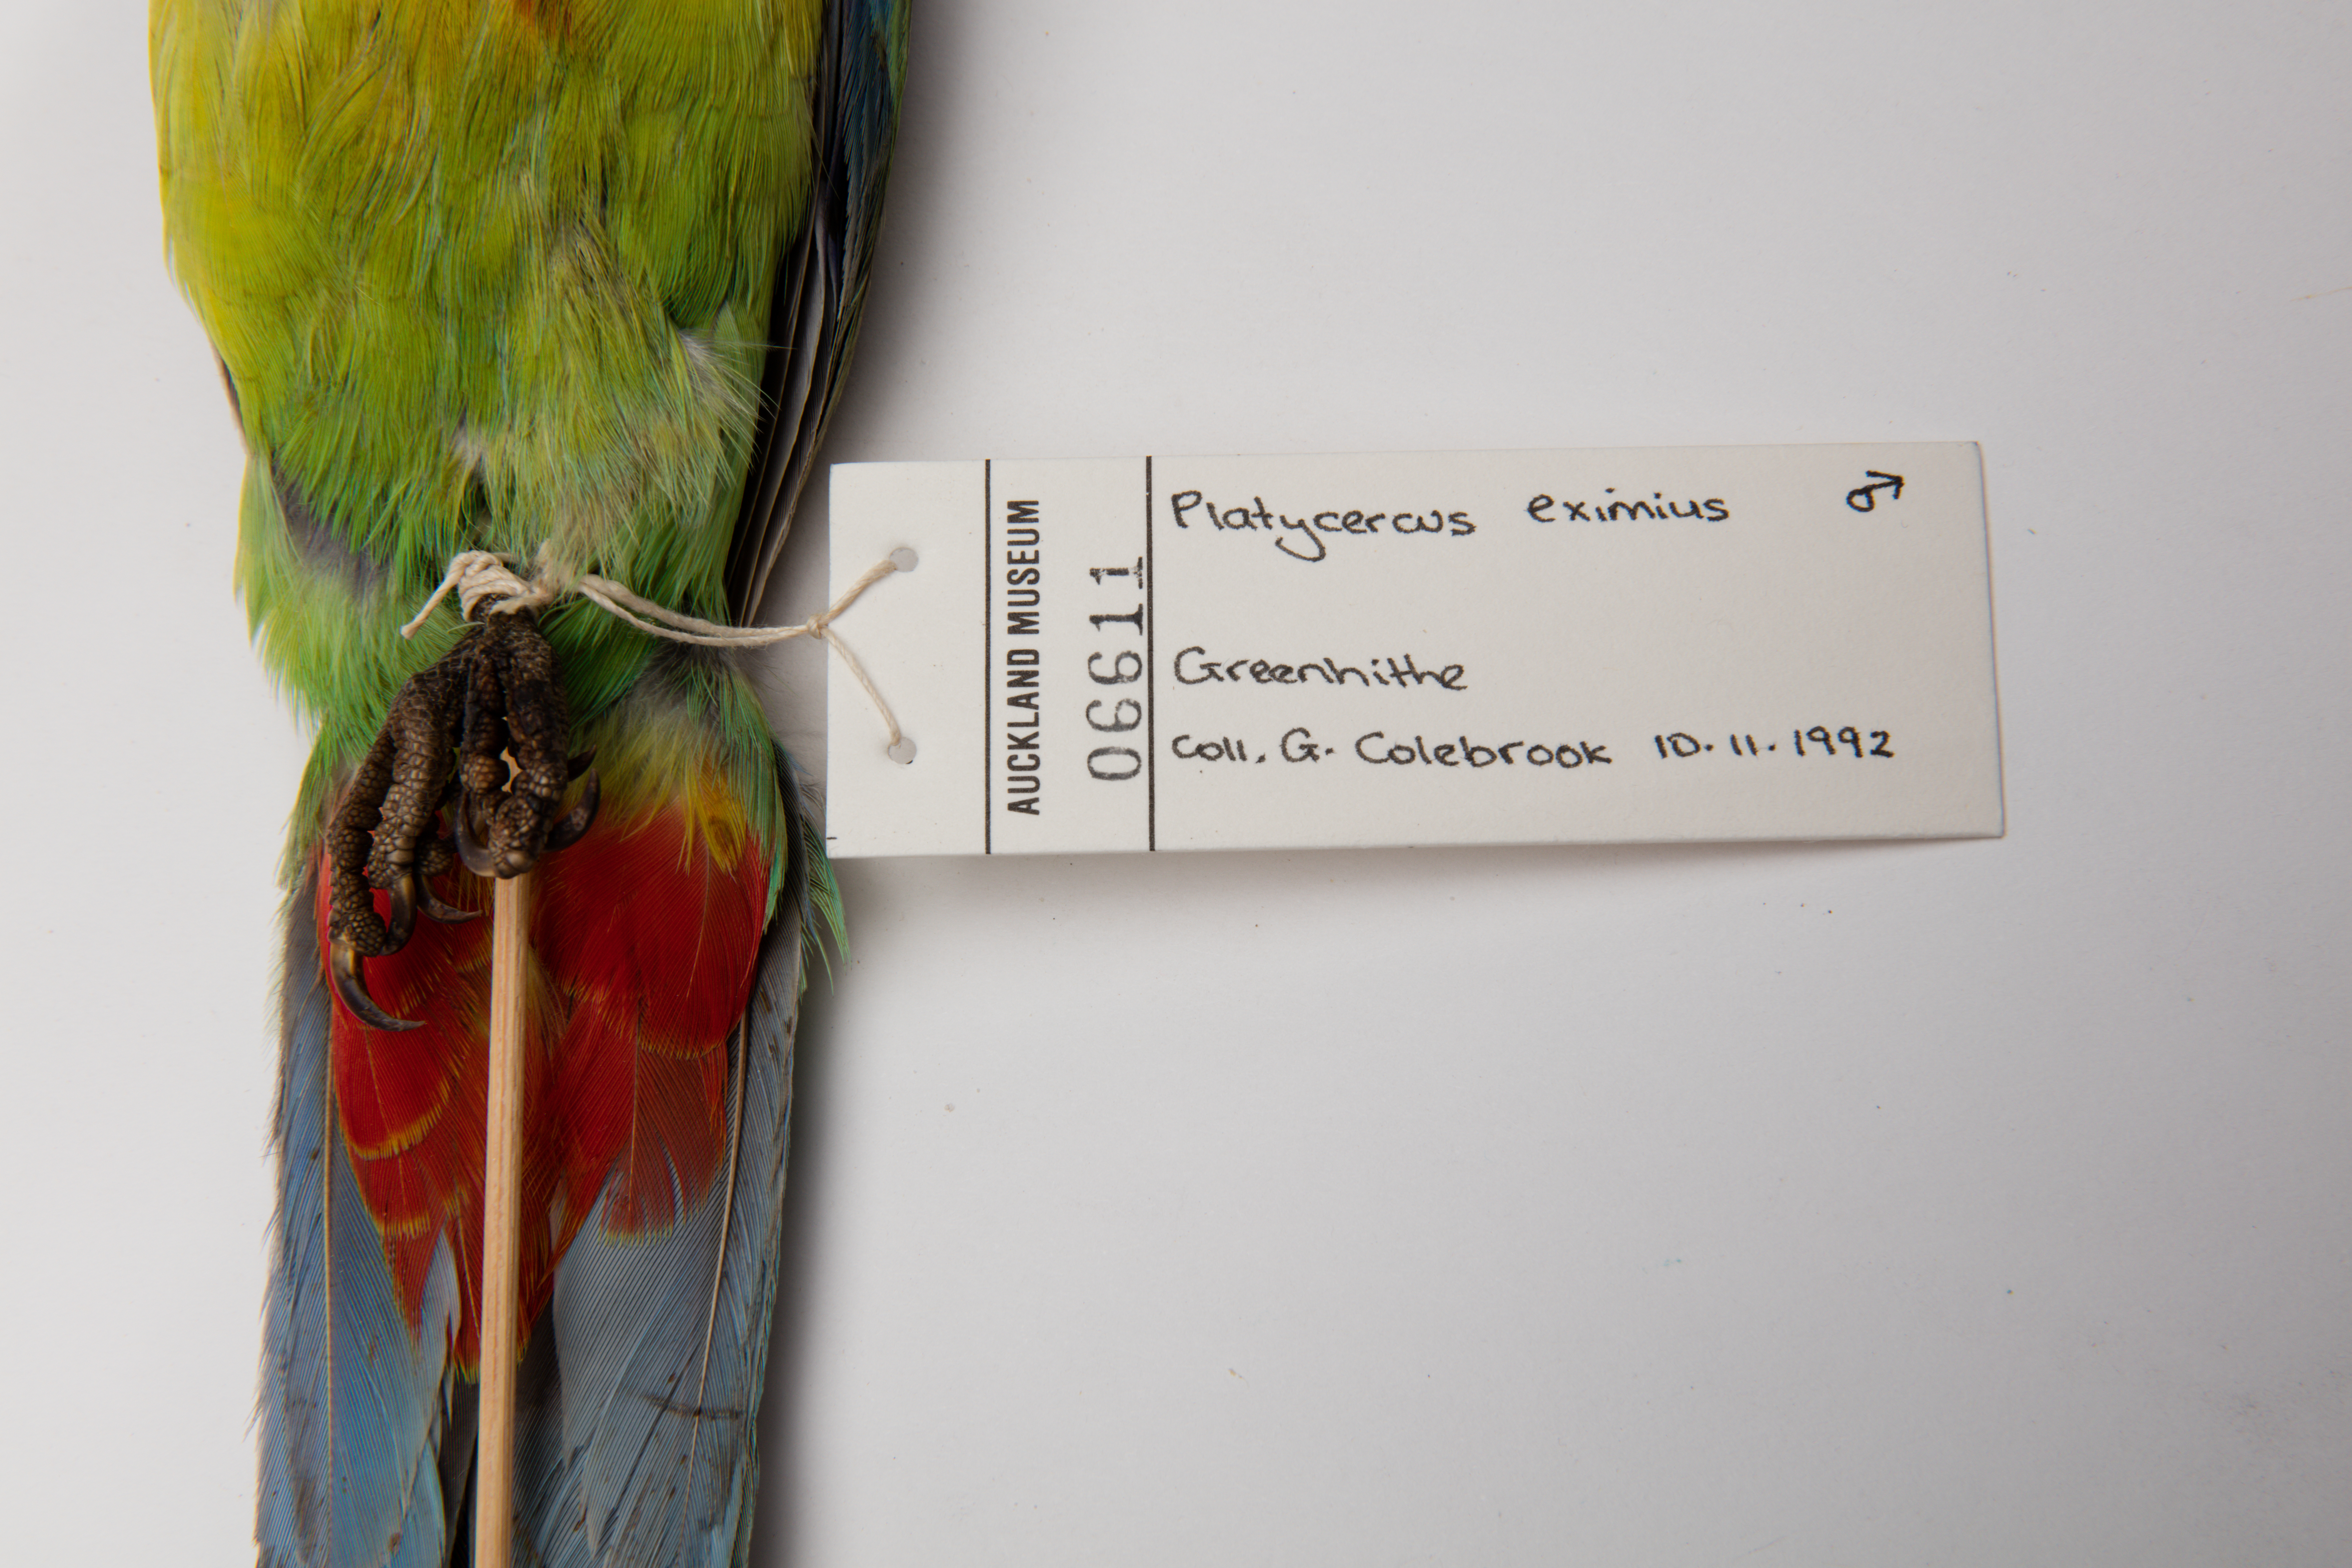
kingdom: Animalia
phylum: Chordata
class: Aves
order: Psittaciformes
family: Psittacidae
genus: Platycercus
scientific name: Platycercus eximius
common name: Eastern rosella
